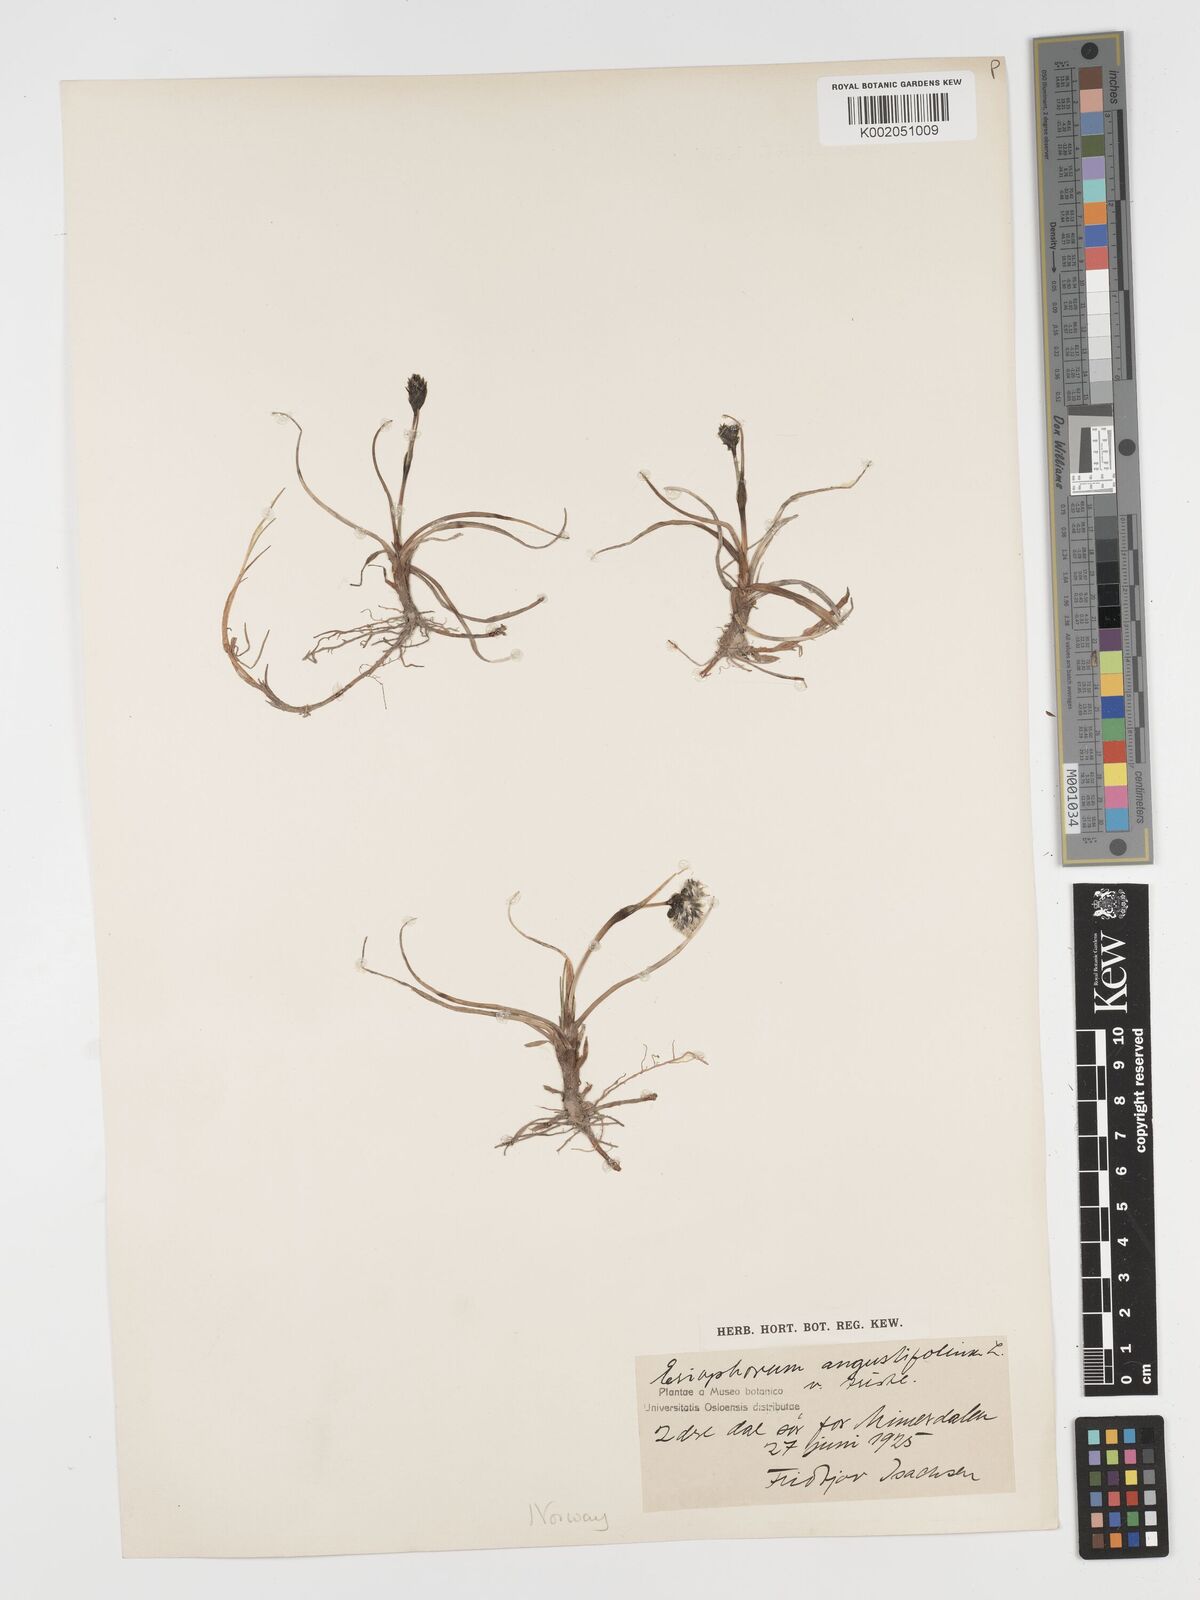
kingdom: Plantae
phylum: Tracheophyta
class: Liliopsida
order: Poales
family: Cyperaceae
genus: Eriophorum
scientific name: Eriophorum angustifolium
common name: Common cottongrass
